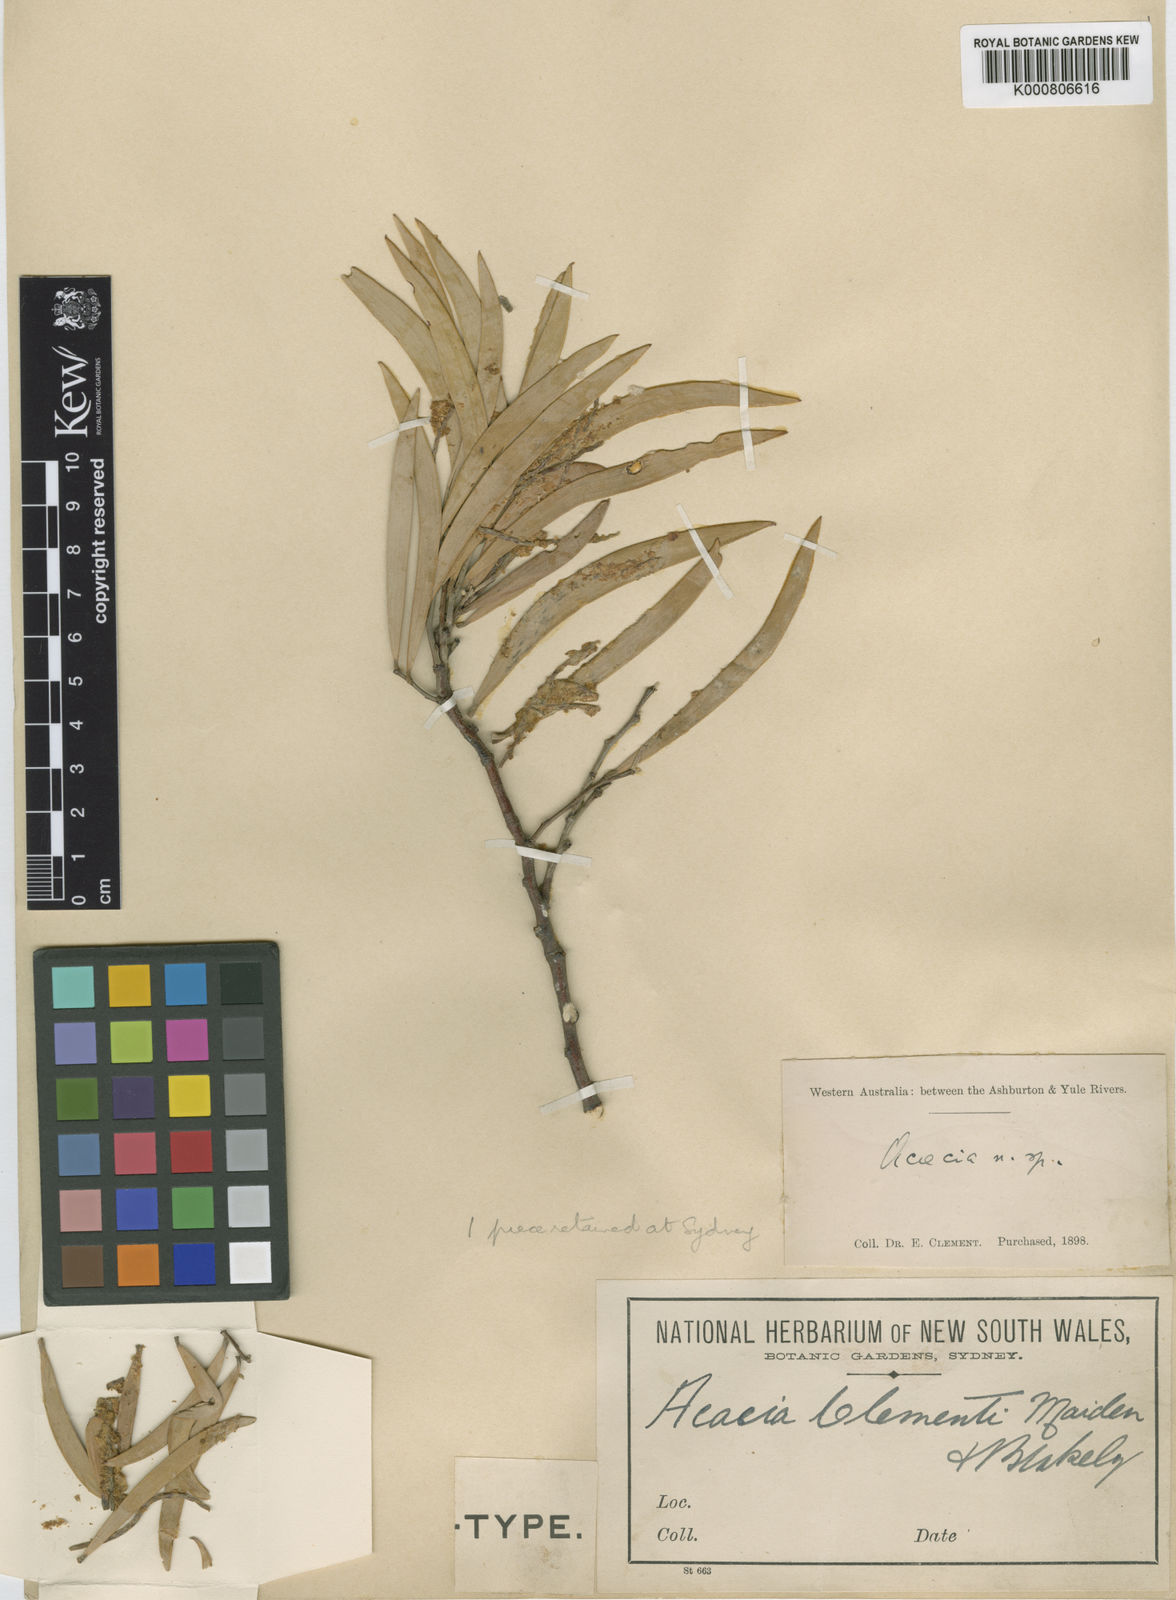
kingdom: Plantae
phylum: Tracheophyta
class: Magnoliopsida
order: Fabales
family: Fabaceae
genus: Acacia
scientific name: Acacia
